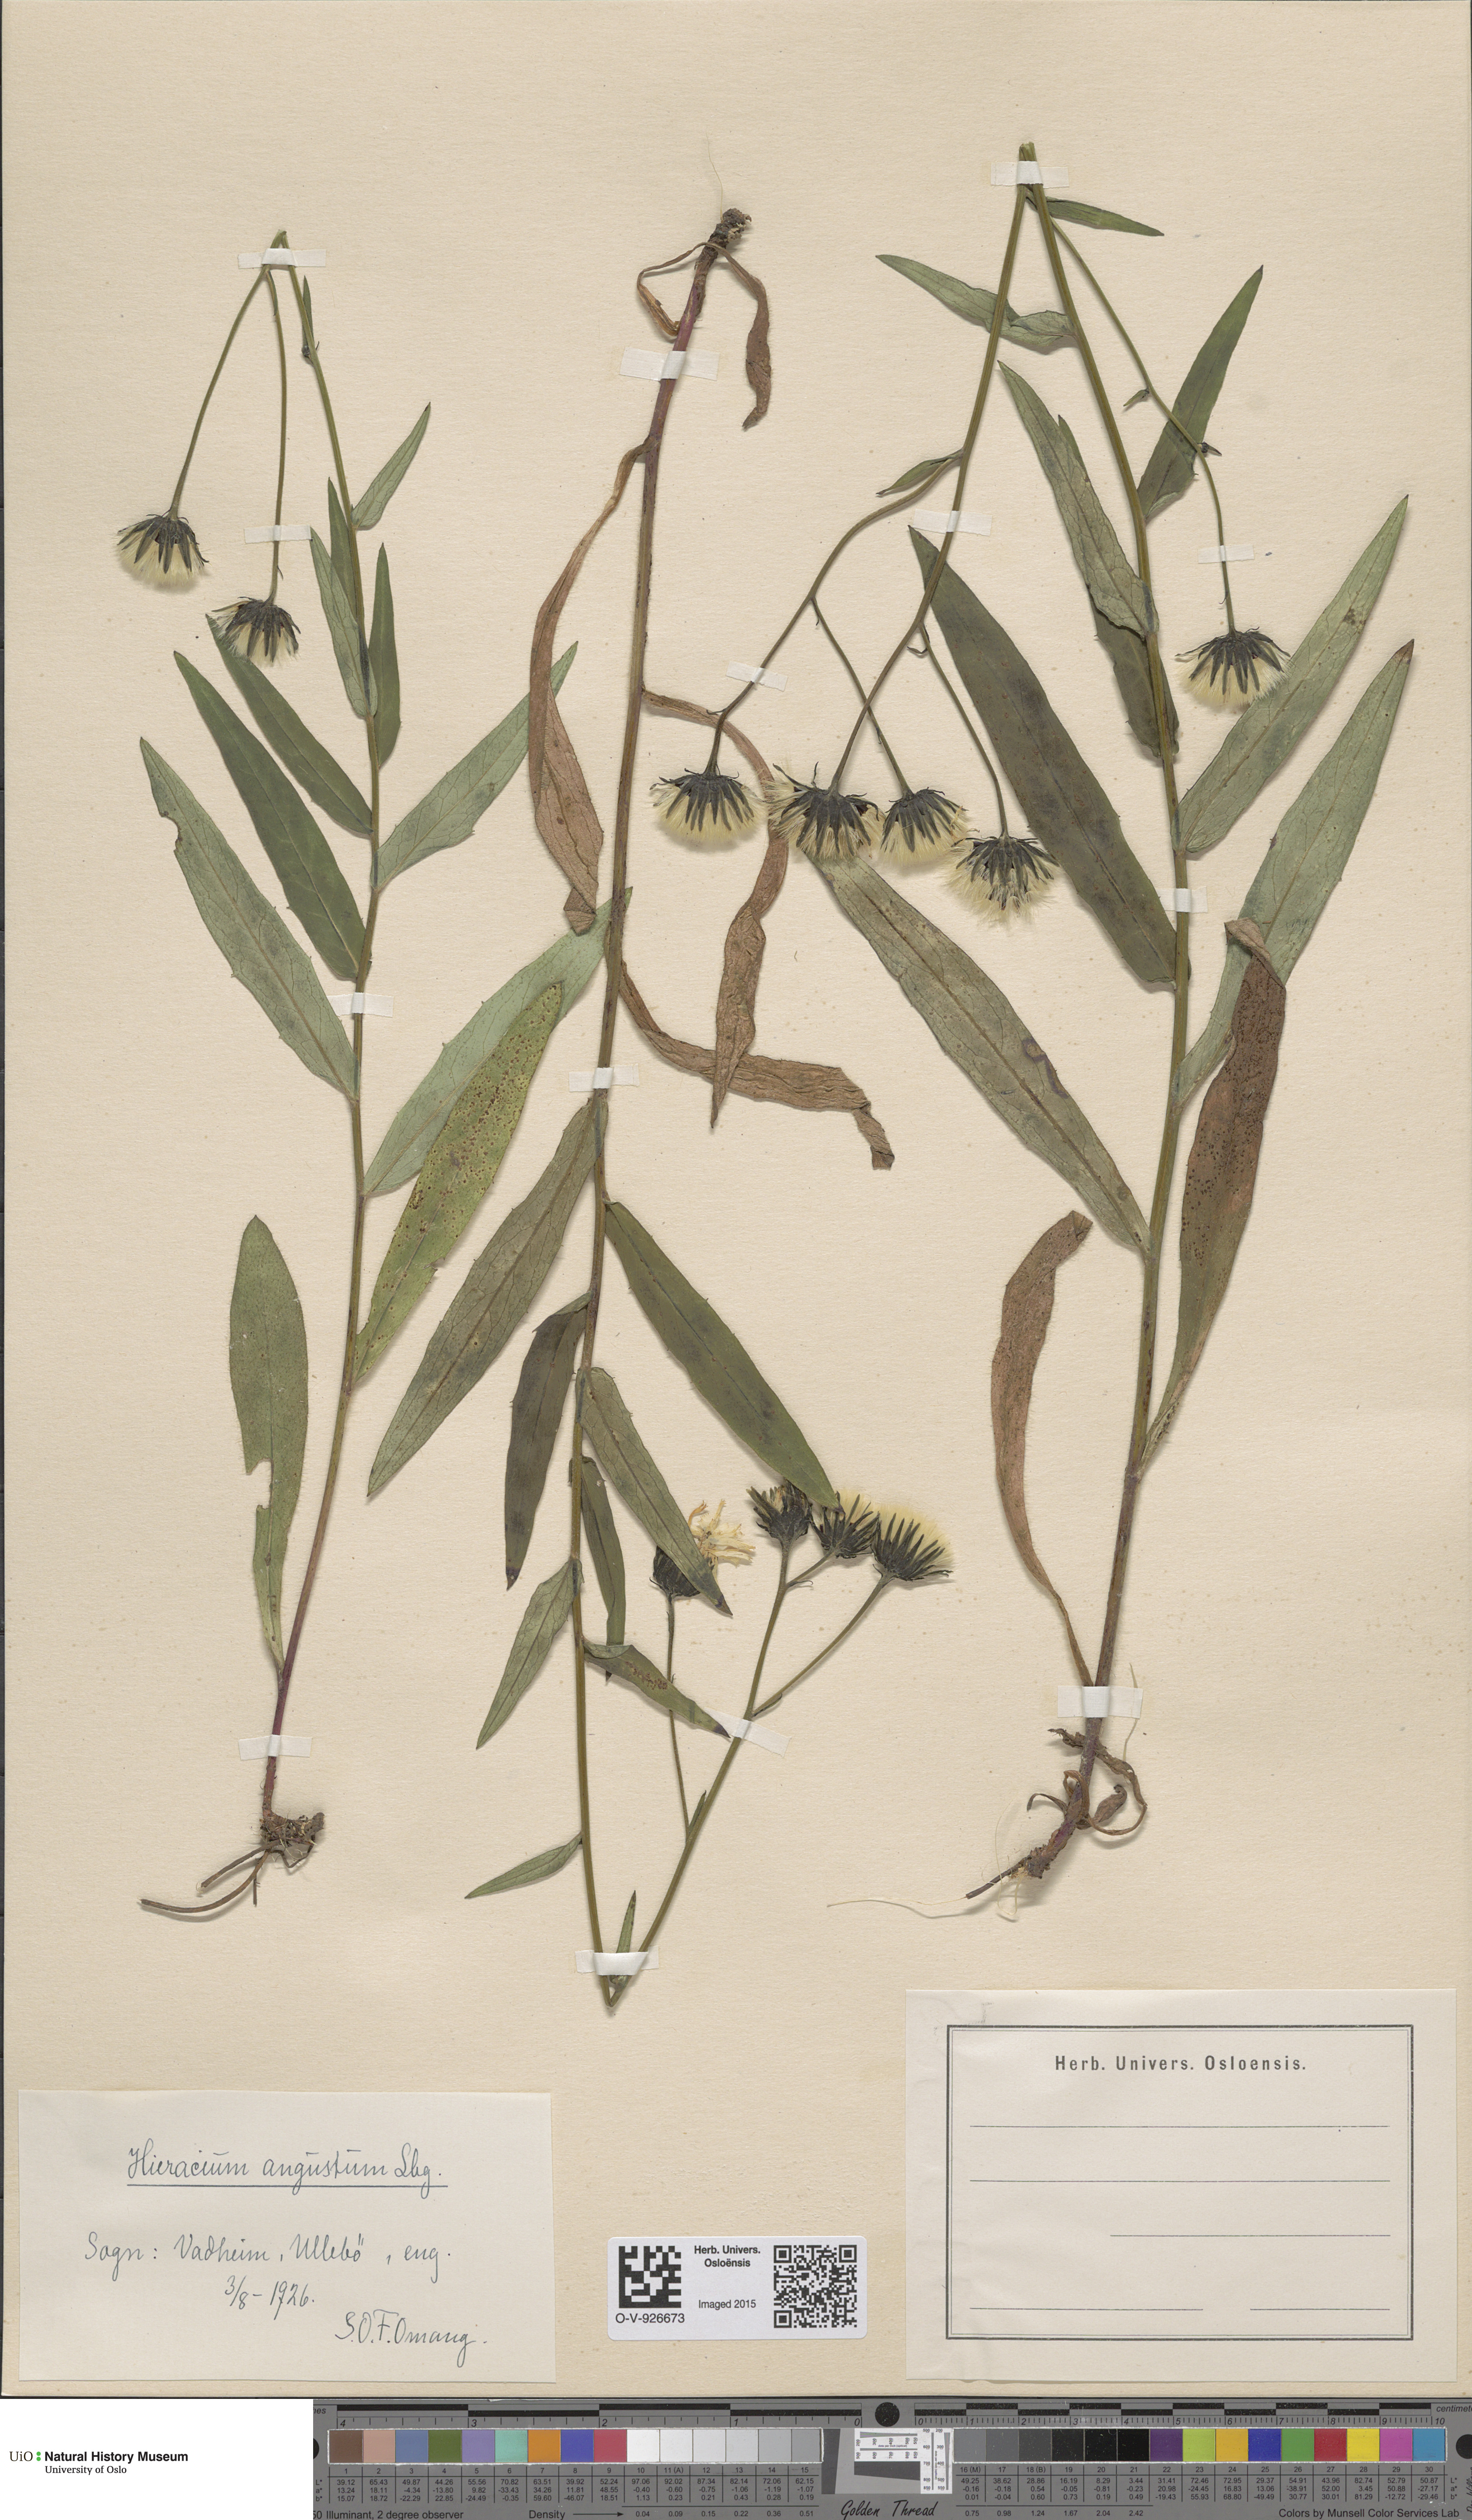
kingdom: Plantae
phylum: Tracheophyta
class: Magnoliopsida
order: Asterales
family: Asteraceae
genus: Hieracium
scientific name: Hieracium angustum
